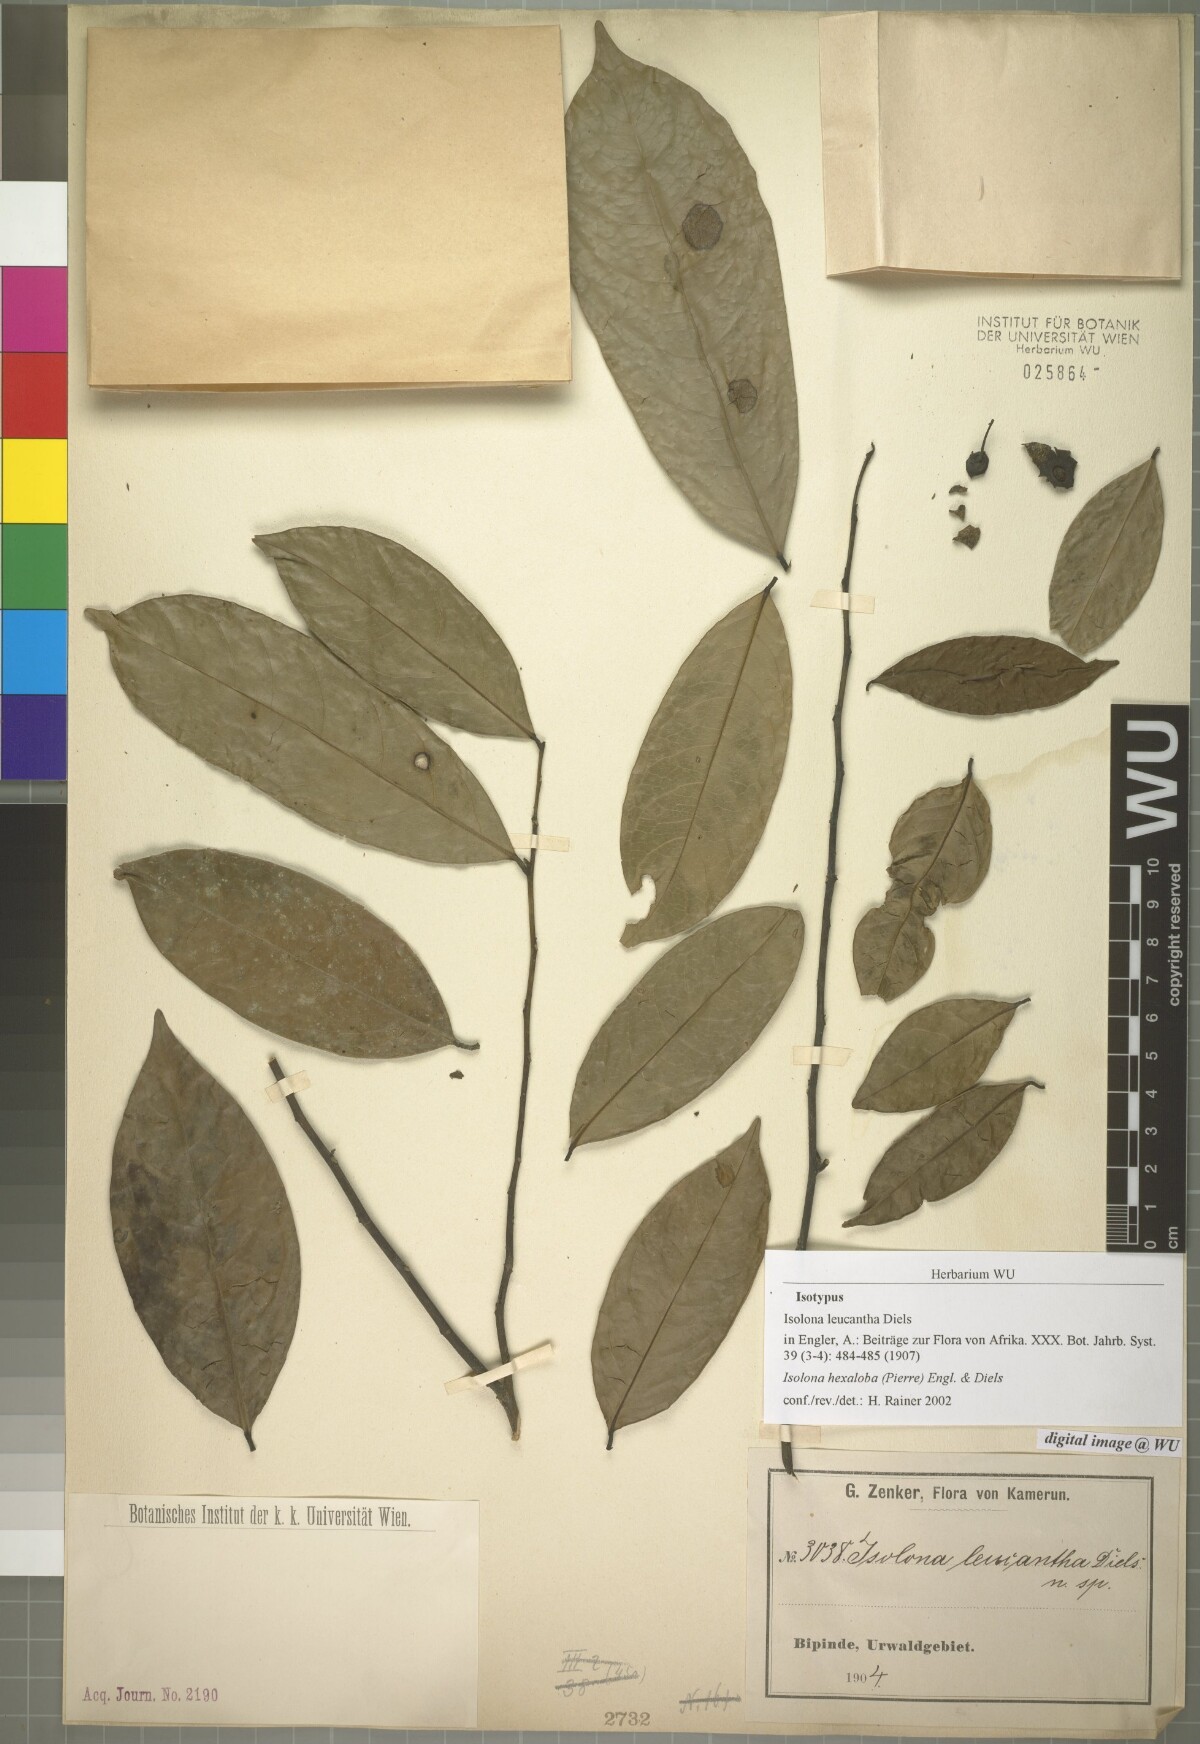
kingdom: Plantae
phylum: Tracheophyta
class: Magnoliopsida
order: Magnoliales
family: Annonaceae
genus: Isolona
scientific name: Isolona pleurocarpa
